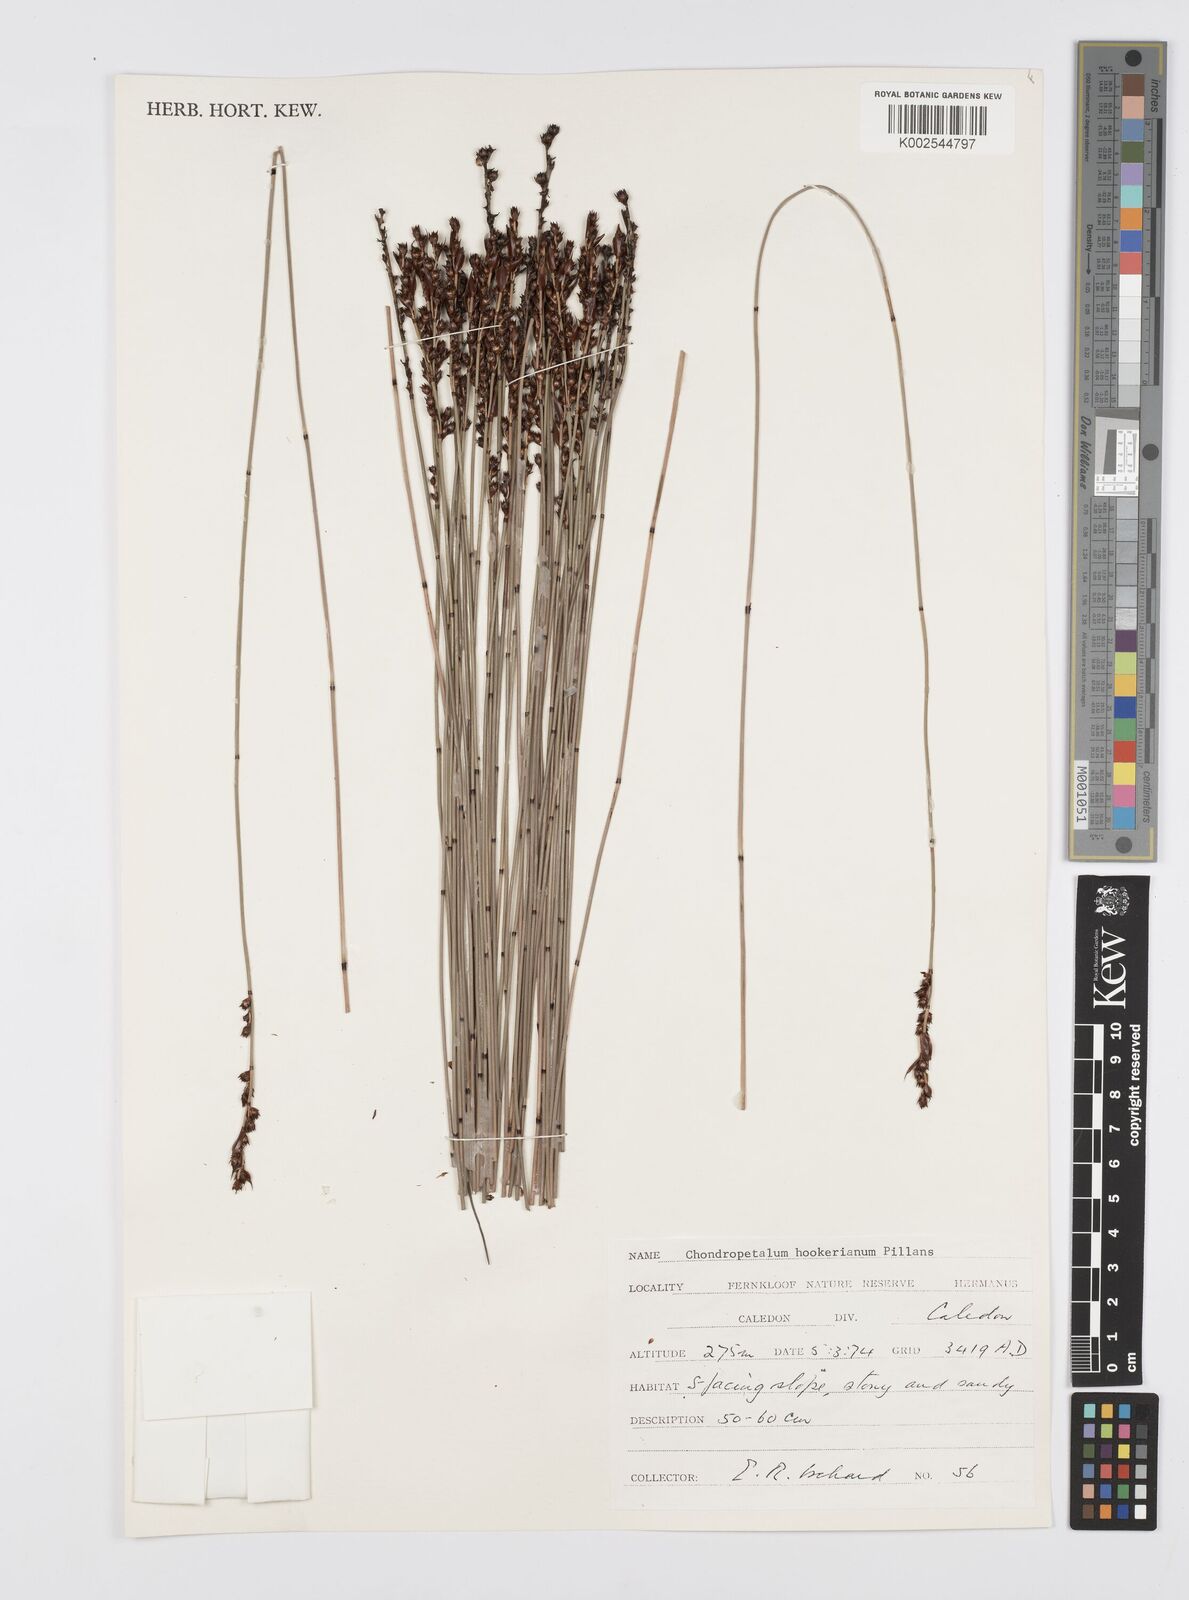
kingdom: Plantae
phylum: Tracheophyta
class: Liliopsida
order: Poales
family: Restionaceae
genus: Elegia
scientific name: Elegia hookeriana
